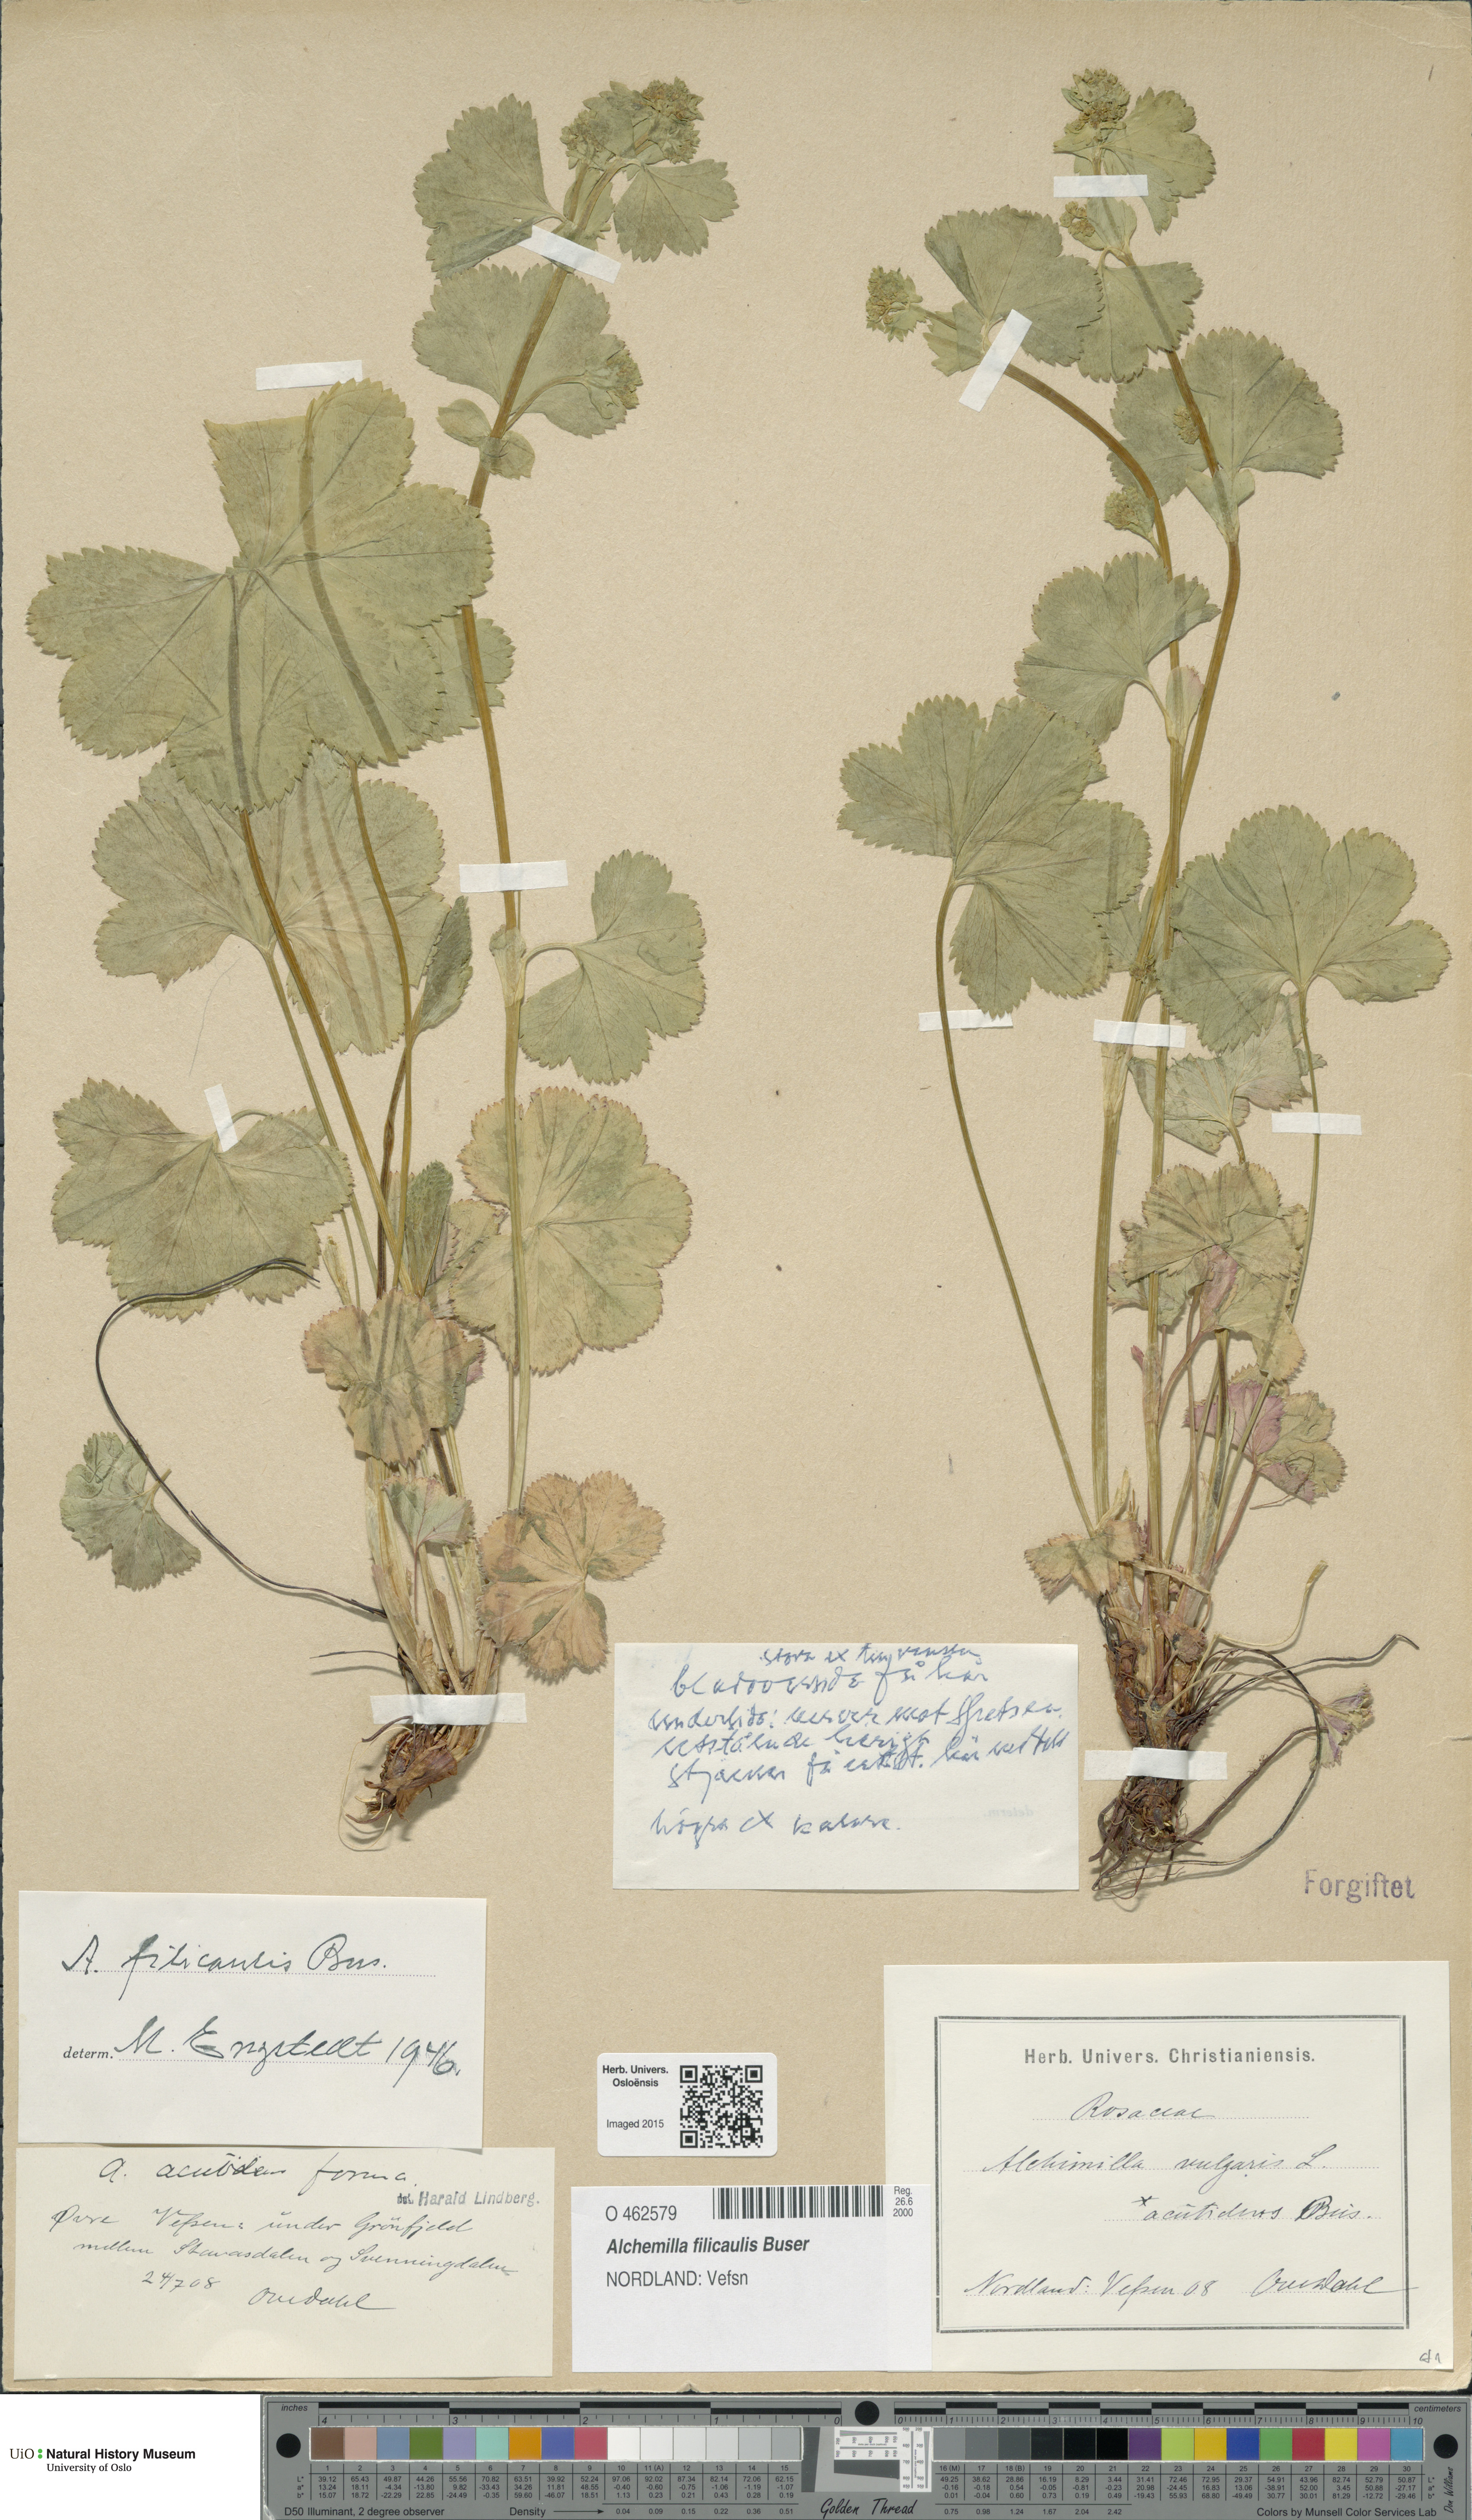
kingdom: Plantae
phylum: Tracheophyta
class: Magnoliopsida
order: Rosales
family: Rosaceae
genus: Alchemilla
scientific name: Alchemilla filicaulis
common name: Hairy lady's-mantle
